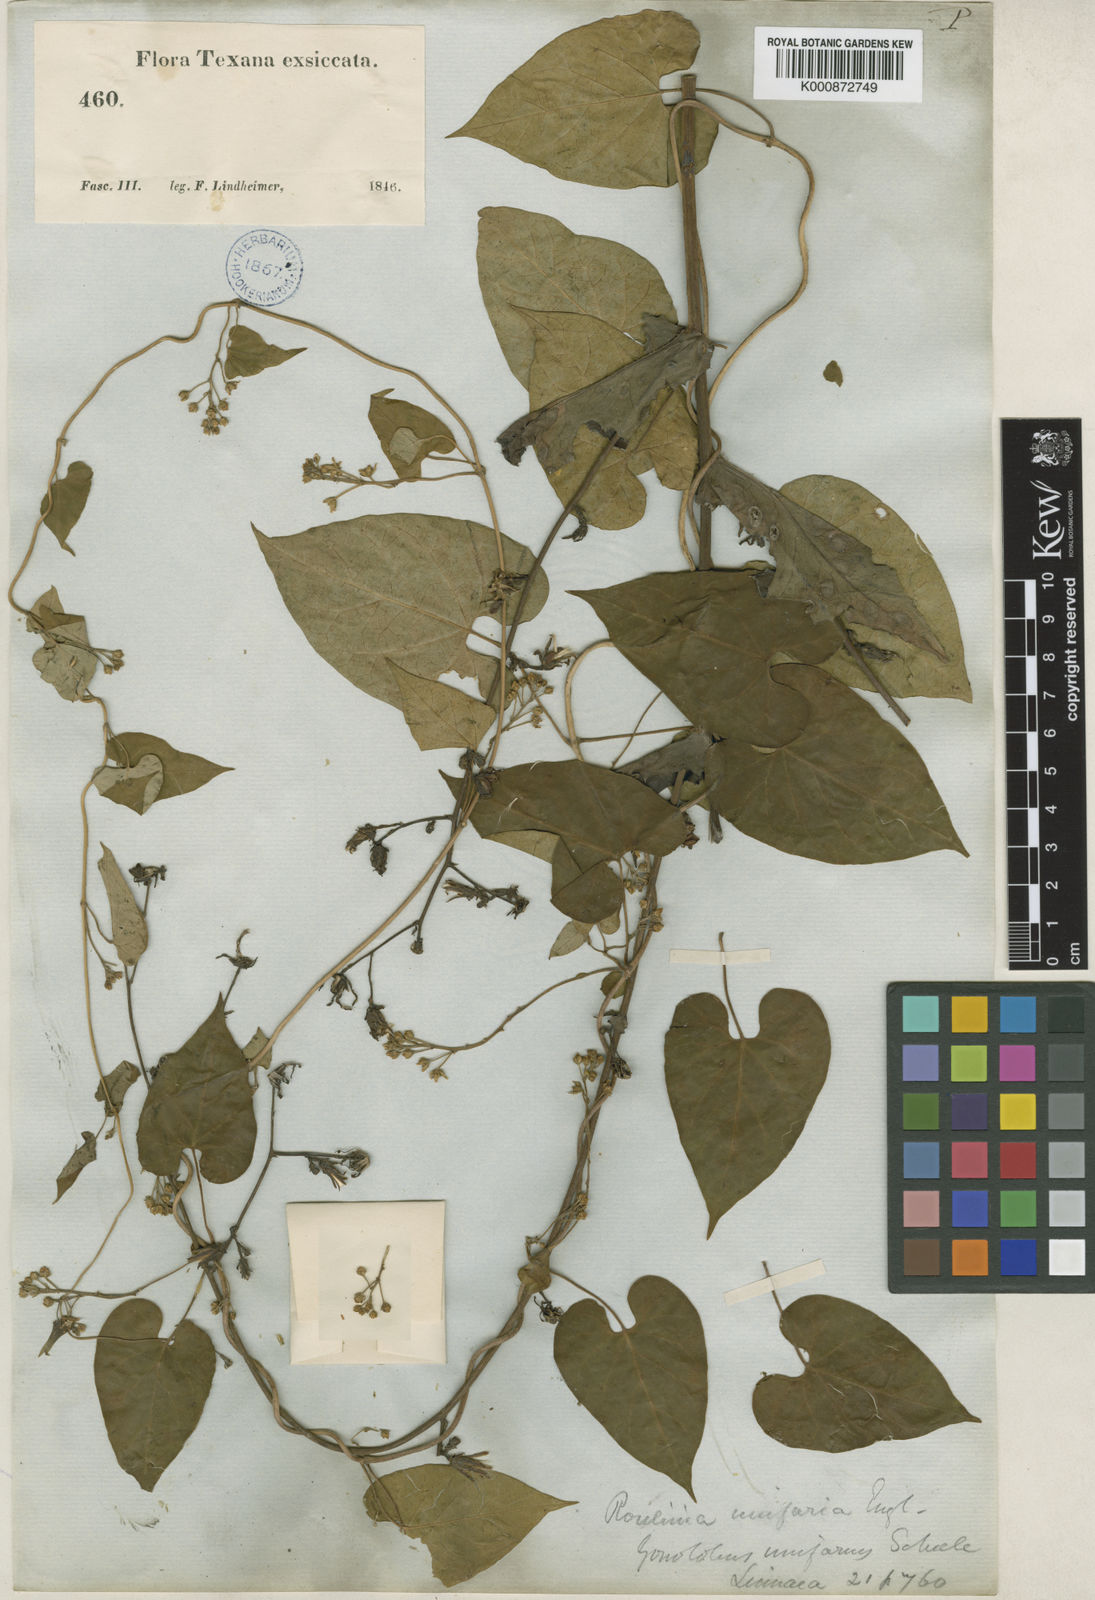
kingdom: Plantae
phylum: Tracheophyta
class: Magnoliopsida
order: Gentianales
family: Apocynaceae
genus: Cynanchum
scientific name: Cynanchum racemosum
